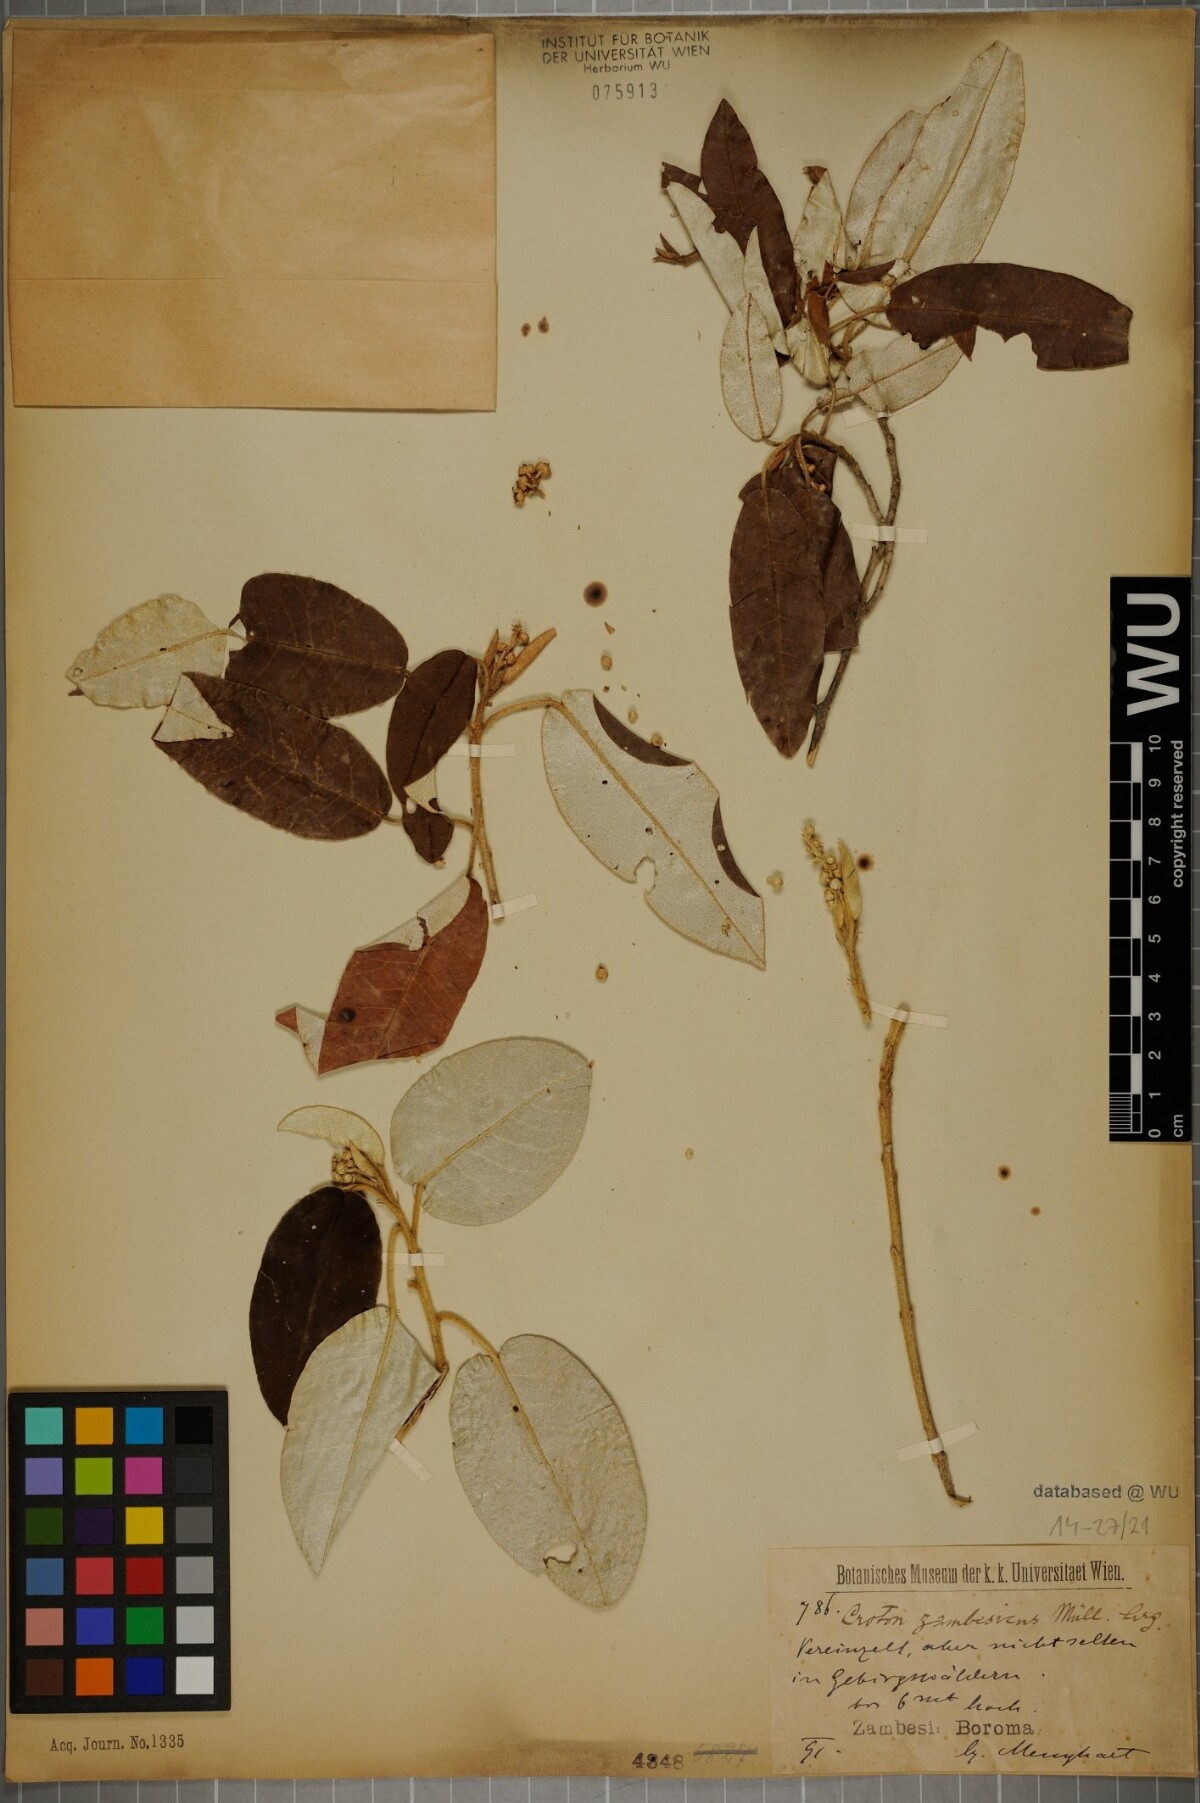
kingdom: Plantae
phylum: Tracheophyta
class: Magnoliopsida
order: Malpighiales
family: Euphorbiaceae
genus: Croton
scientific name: Croton gratissimus
